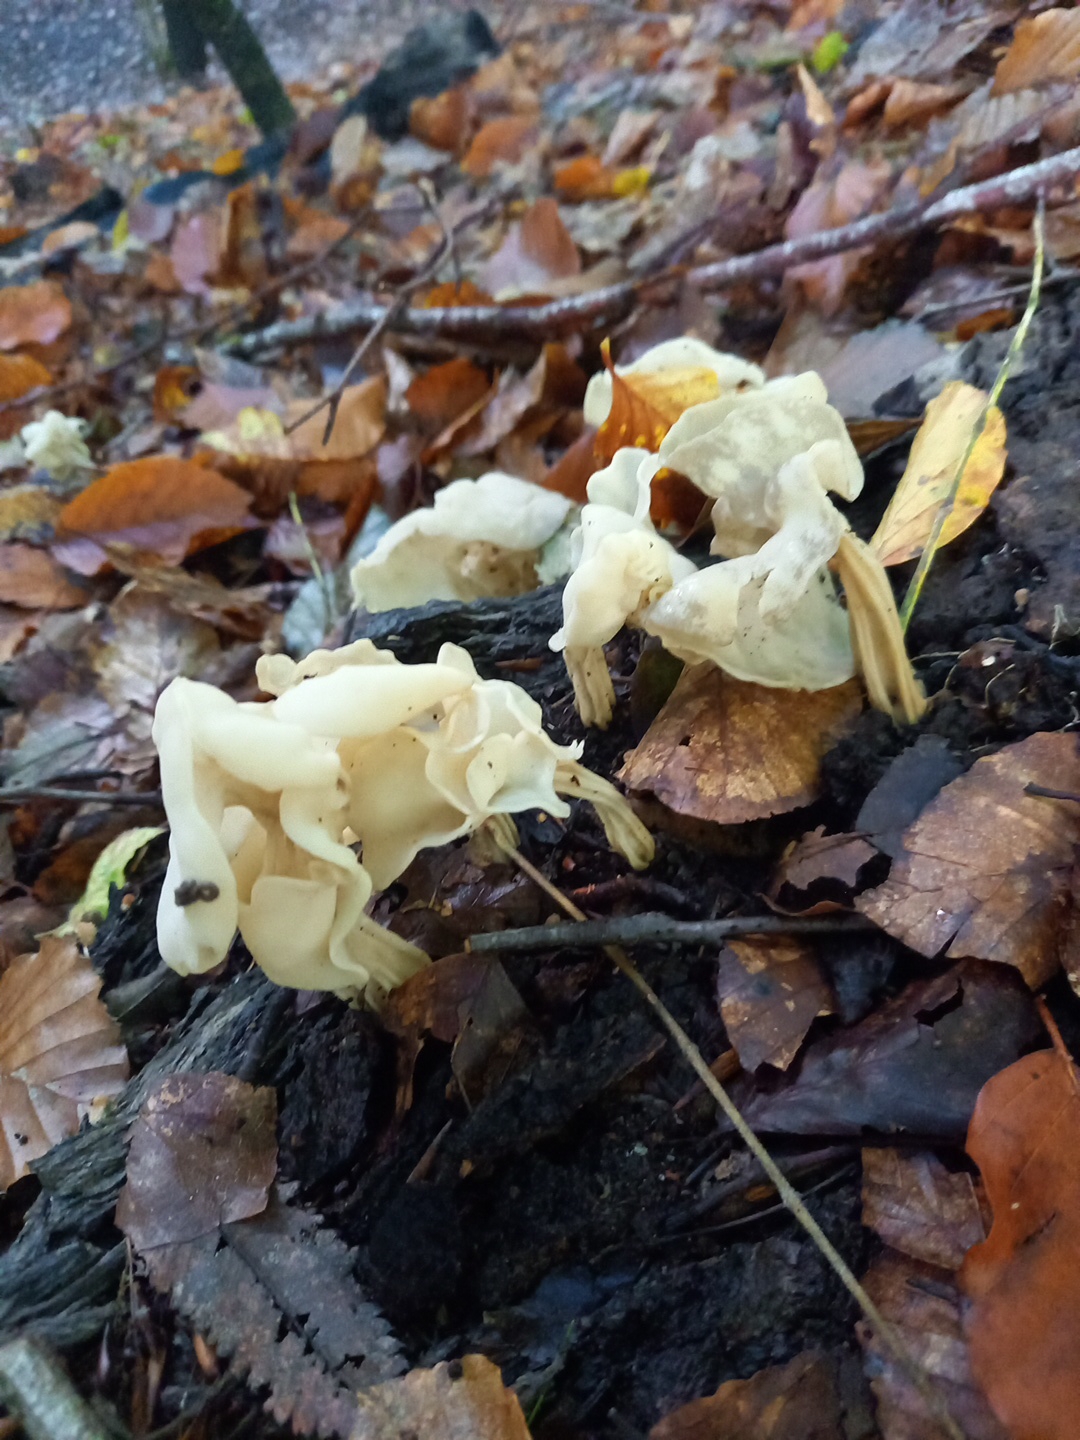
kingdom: Fungi
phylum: Ascomycota
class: Pezizomycetes
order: Pezizales
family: Helvellaceae
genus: Helvella
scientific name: Helvella crispa
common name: kruset foldhat
